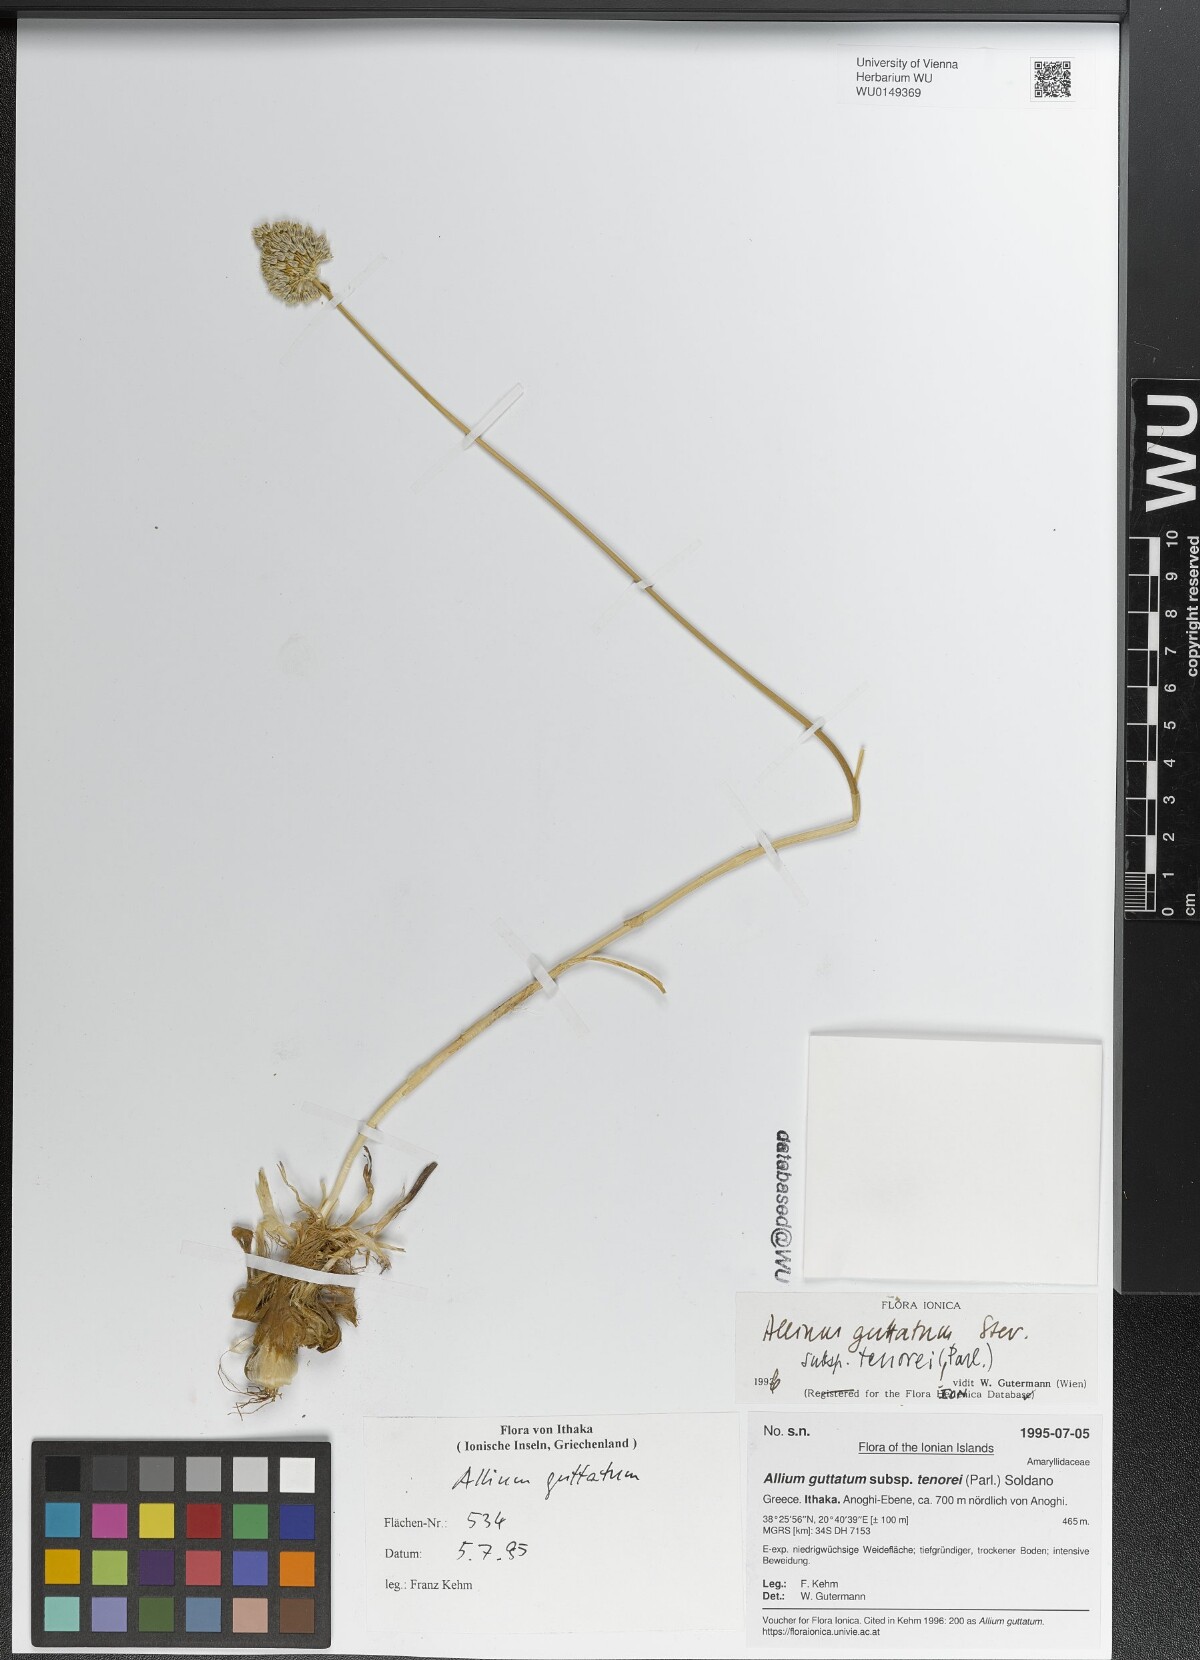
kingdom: Plantae
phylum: Tracheophyta
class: Liliopsida
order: Asparagales
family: Amaryllidaceae
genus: Allium
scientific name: Allium sardoum
